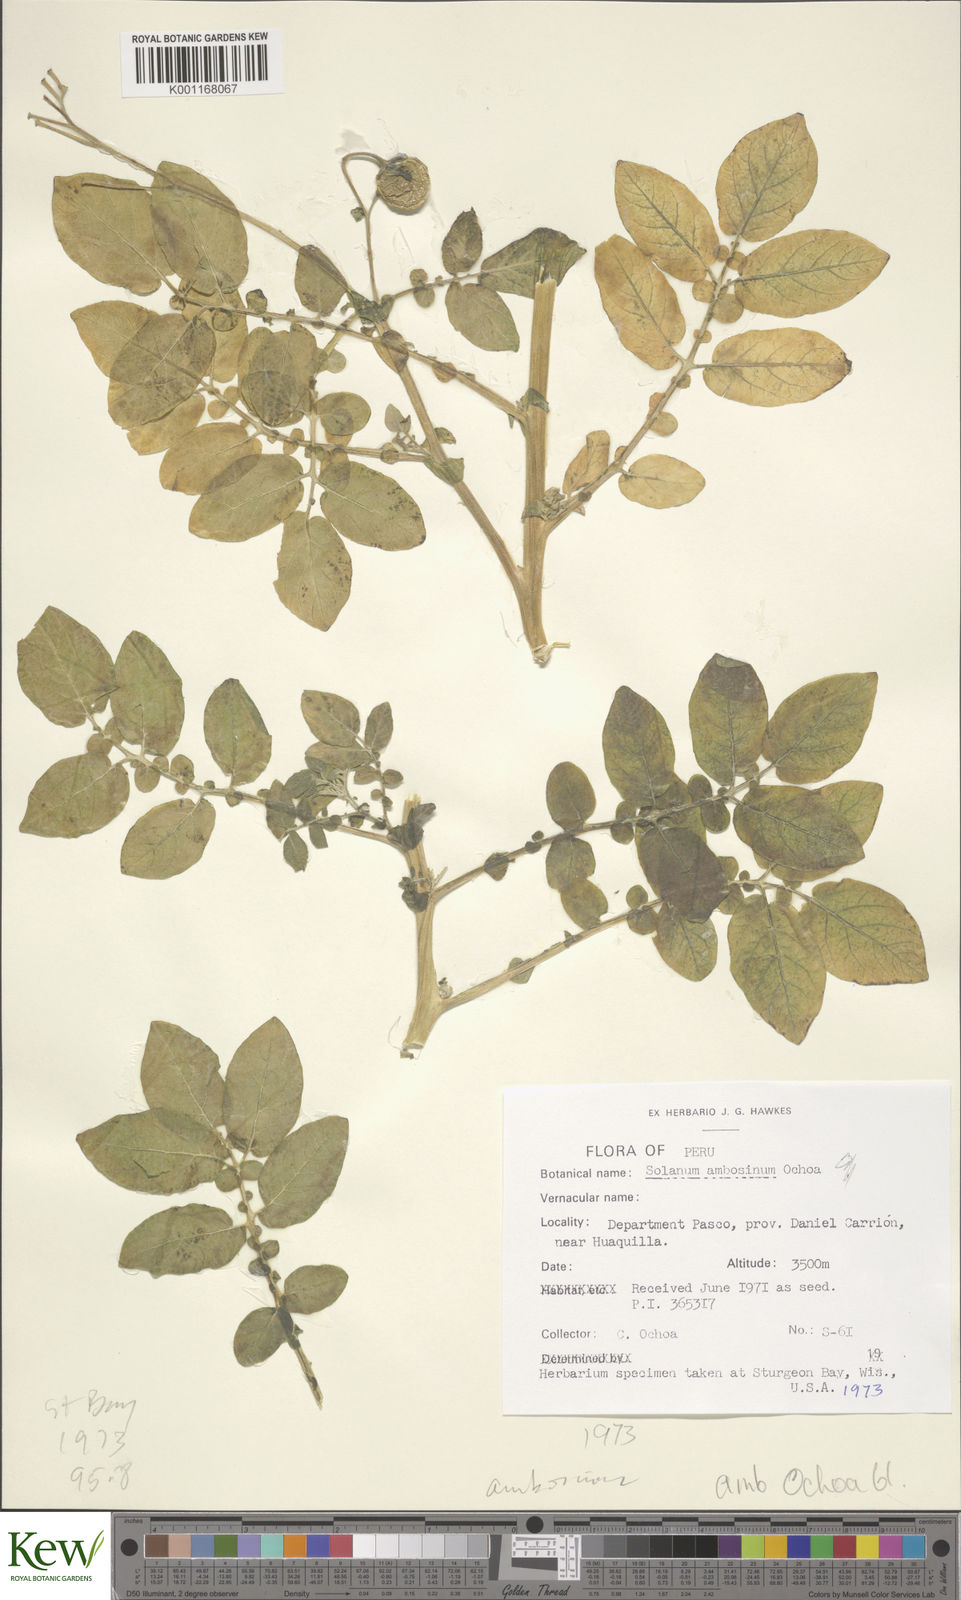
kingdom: Plantae
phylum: Tracheophyta
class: Magnoliopsida
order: Solanales
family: Solanaceae
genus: Solanum
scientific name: Solanum candolleanum
